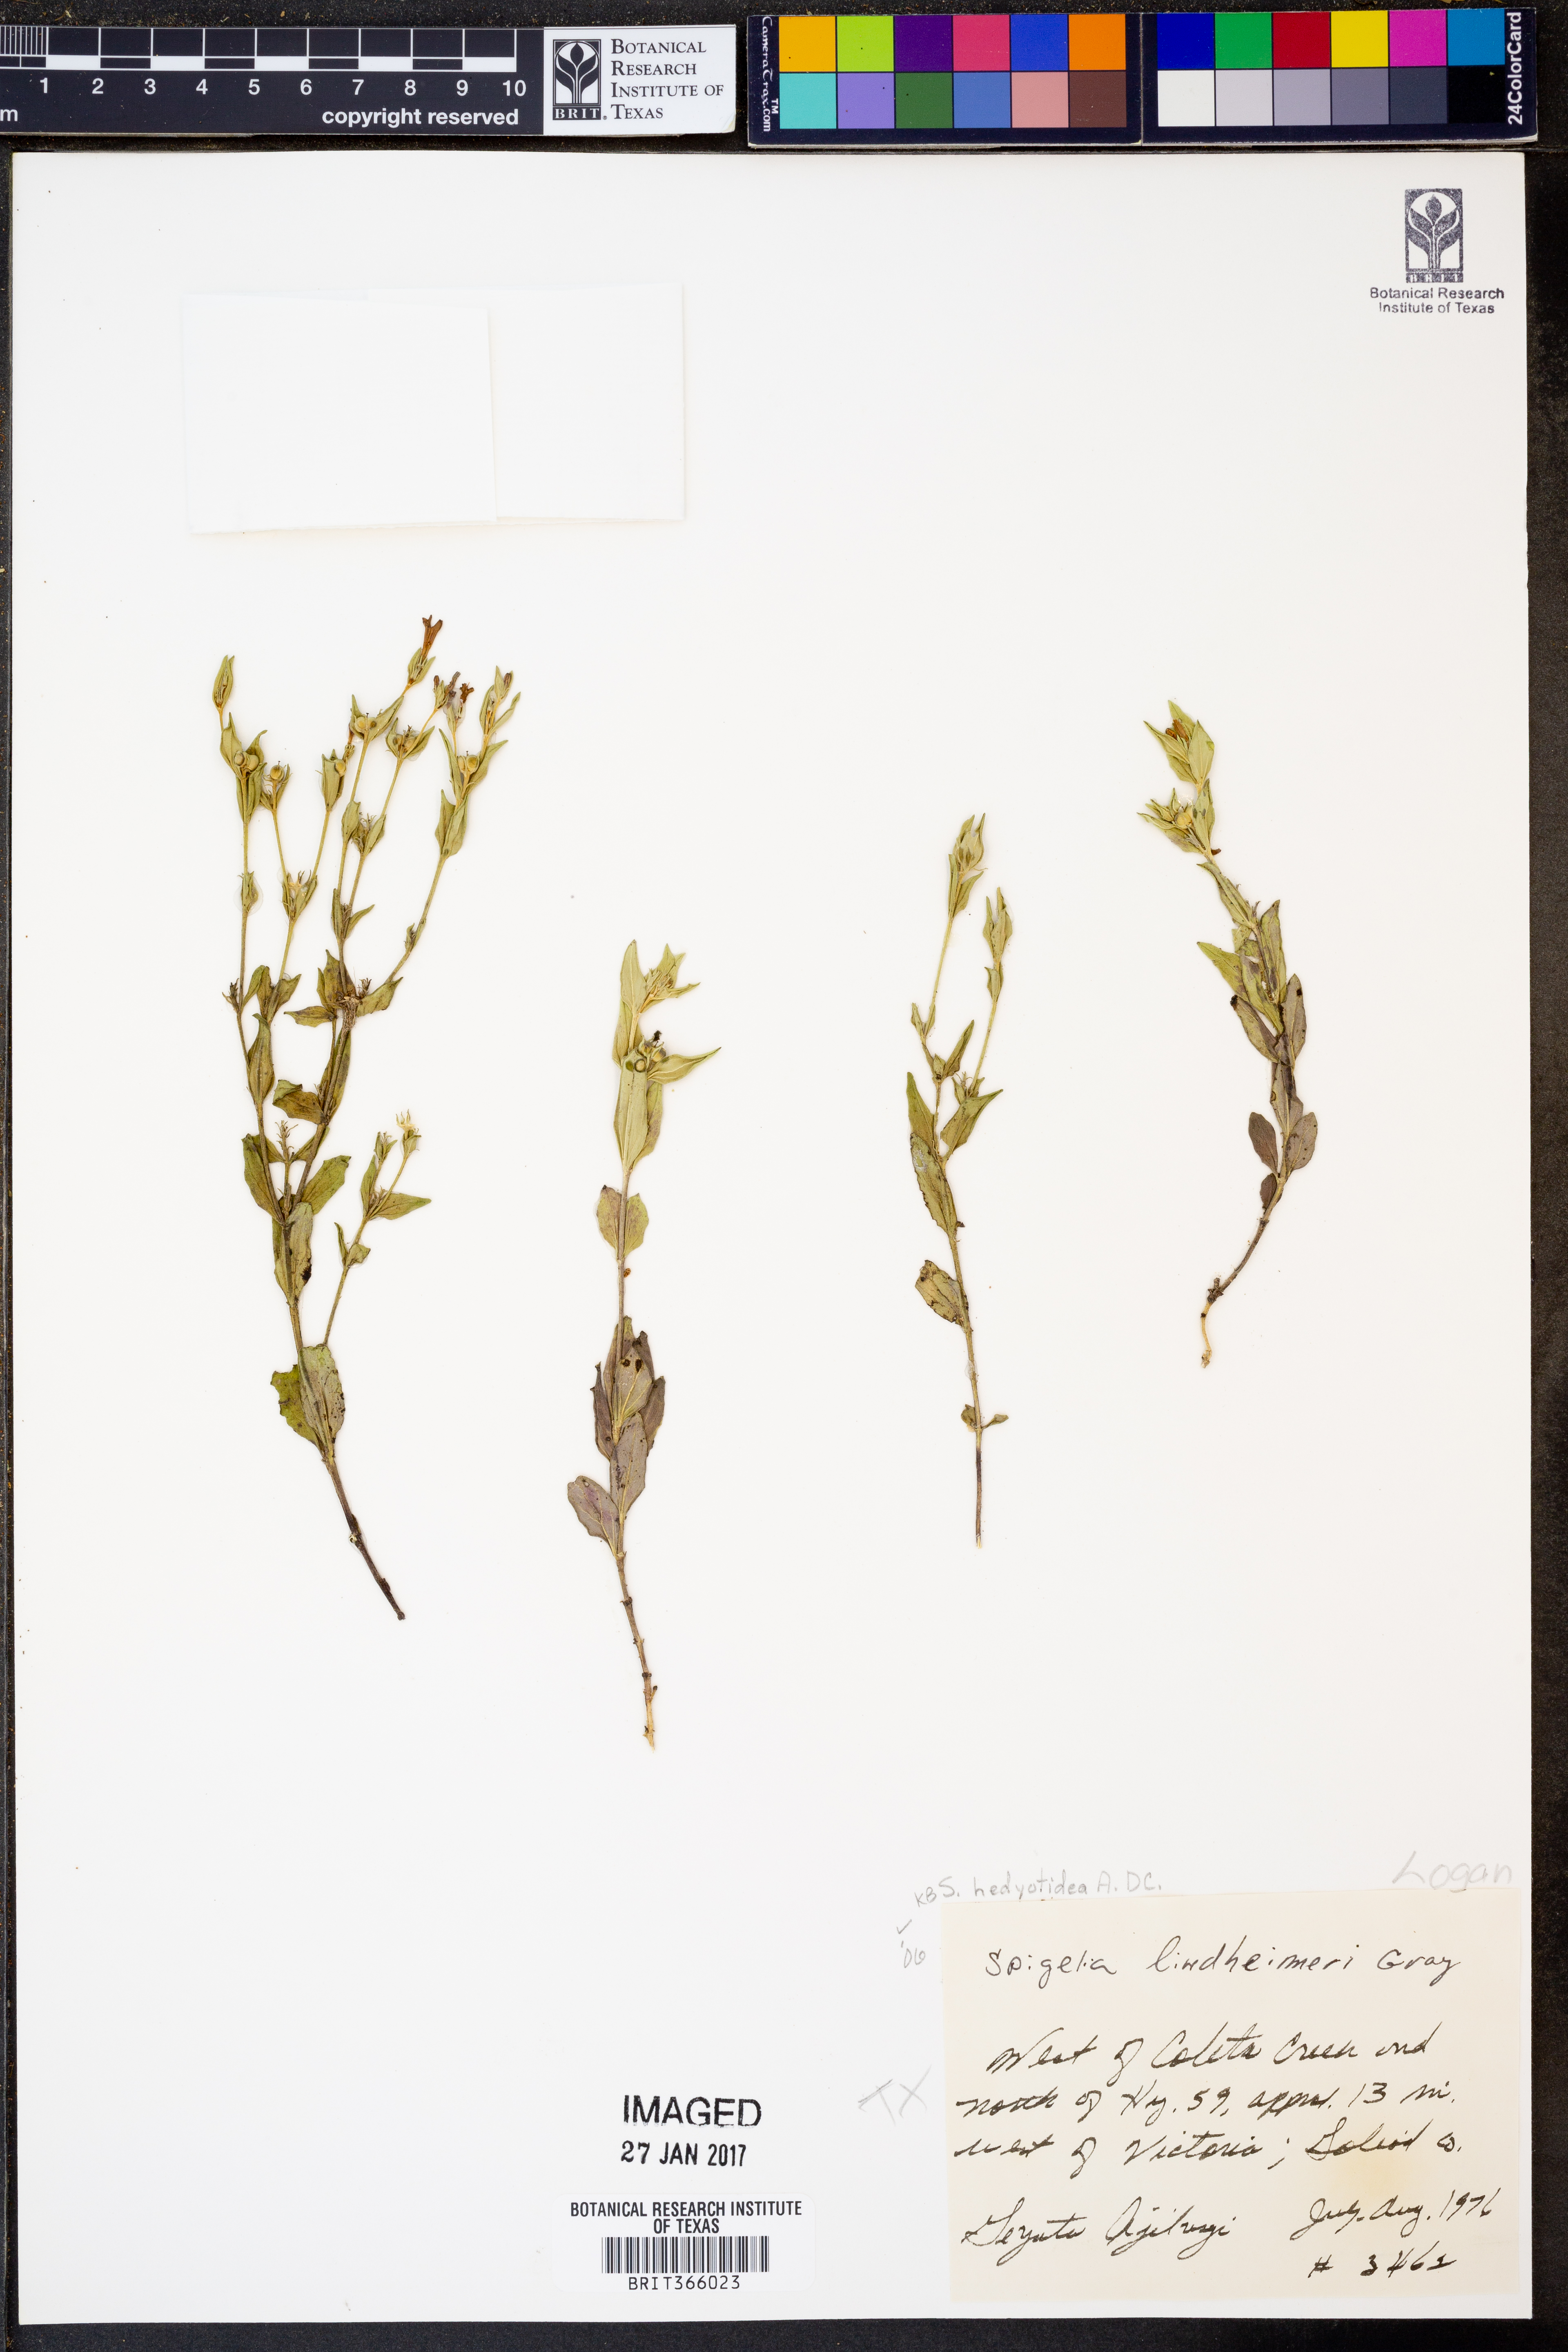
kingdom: Plantae
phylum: Tracheophyta
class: Magnoliopsida
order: Gentianales
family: Loganiaceae
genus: Spigelia
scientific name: Spigelia hedyotidea
